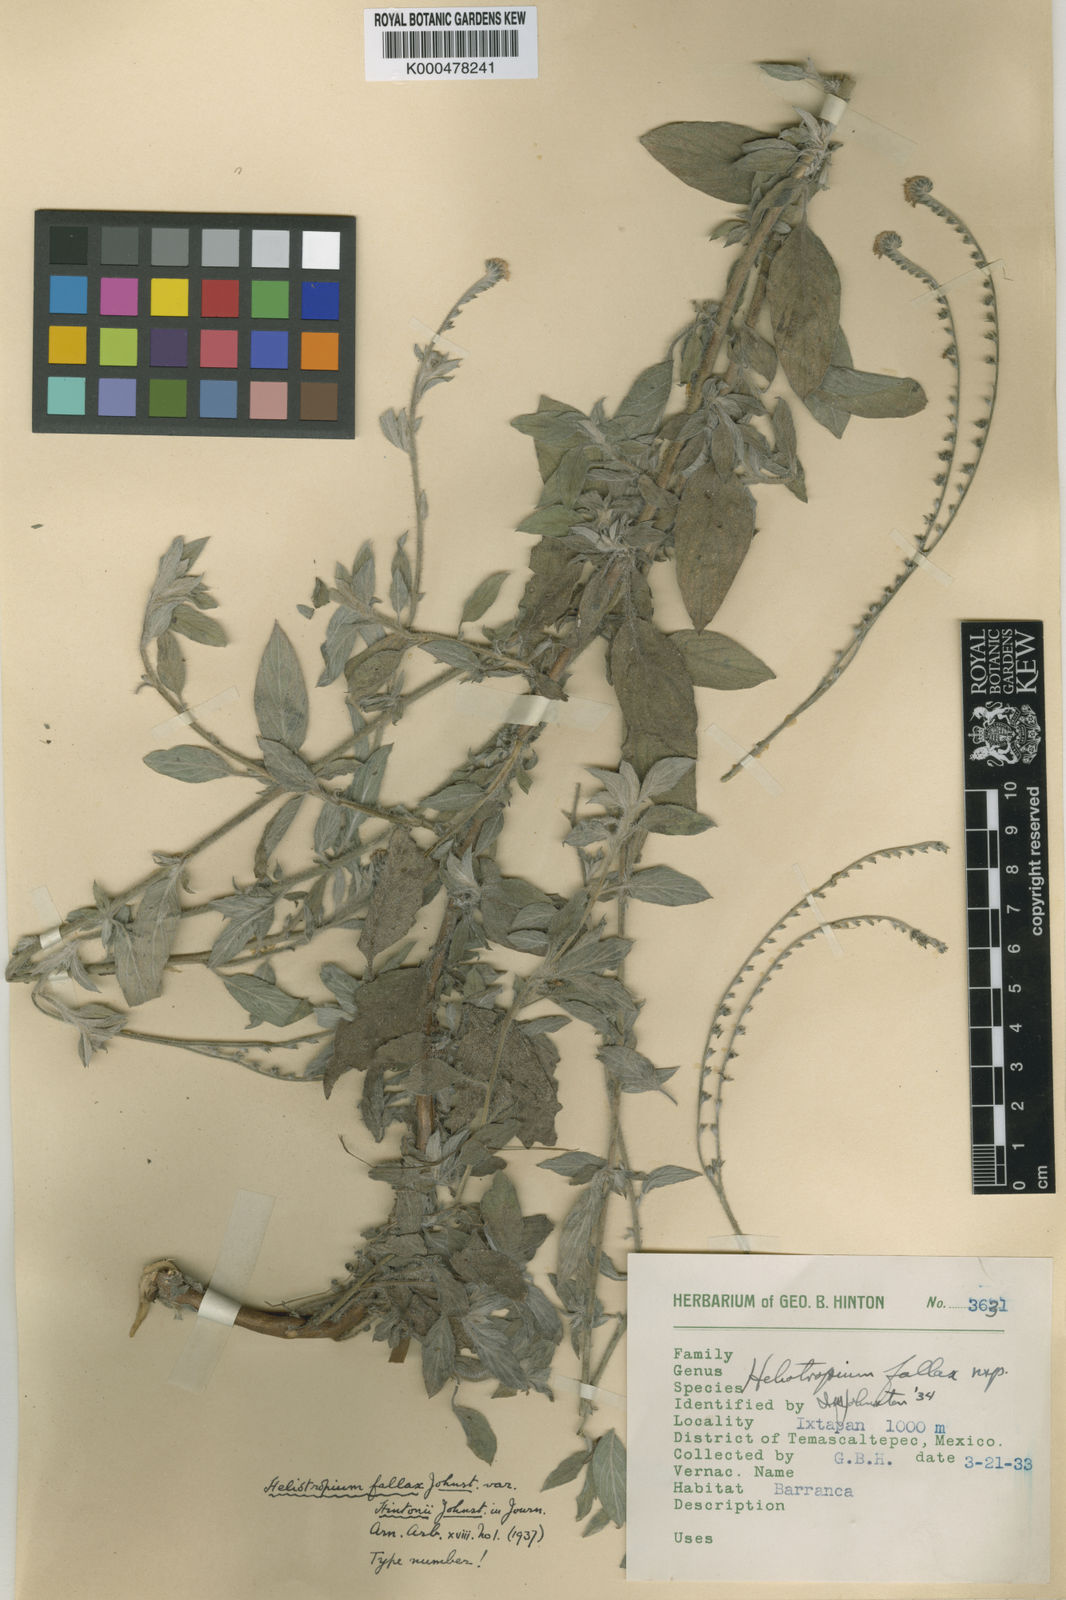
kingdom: Plantae
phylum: Tracheophyta
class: Magnoliopsida
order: Boraginales
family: Heliotropiaceae
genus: Euploca
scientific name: Euploca hintonii
